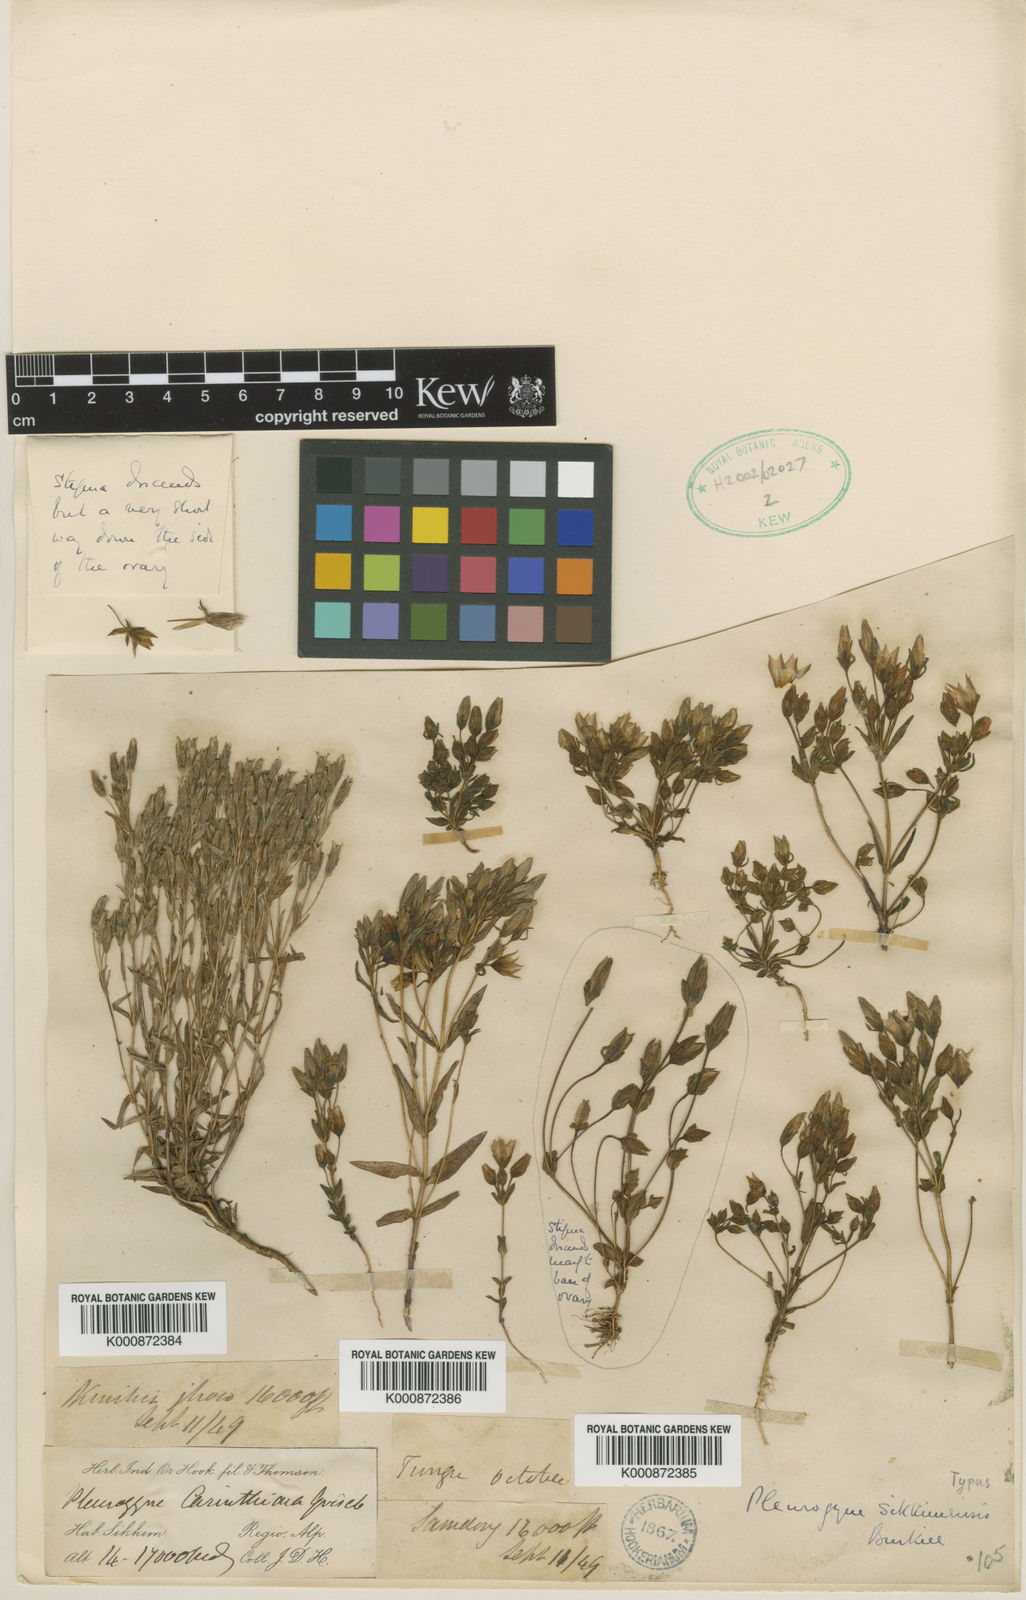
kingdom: Plantae
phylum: Tracheophyta
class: Magnoliopsida
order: Gentianales
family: Gentianaceae
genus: Lomatogonium
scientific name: Lomatogonium sikkimense
